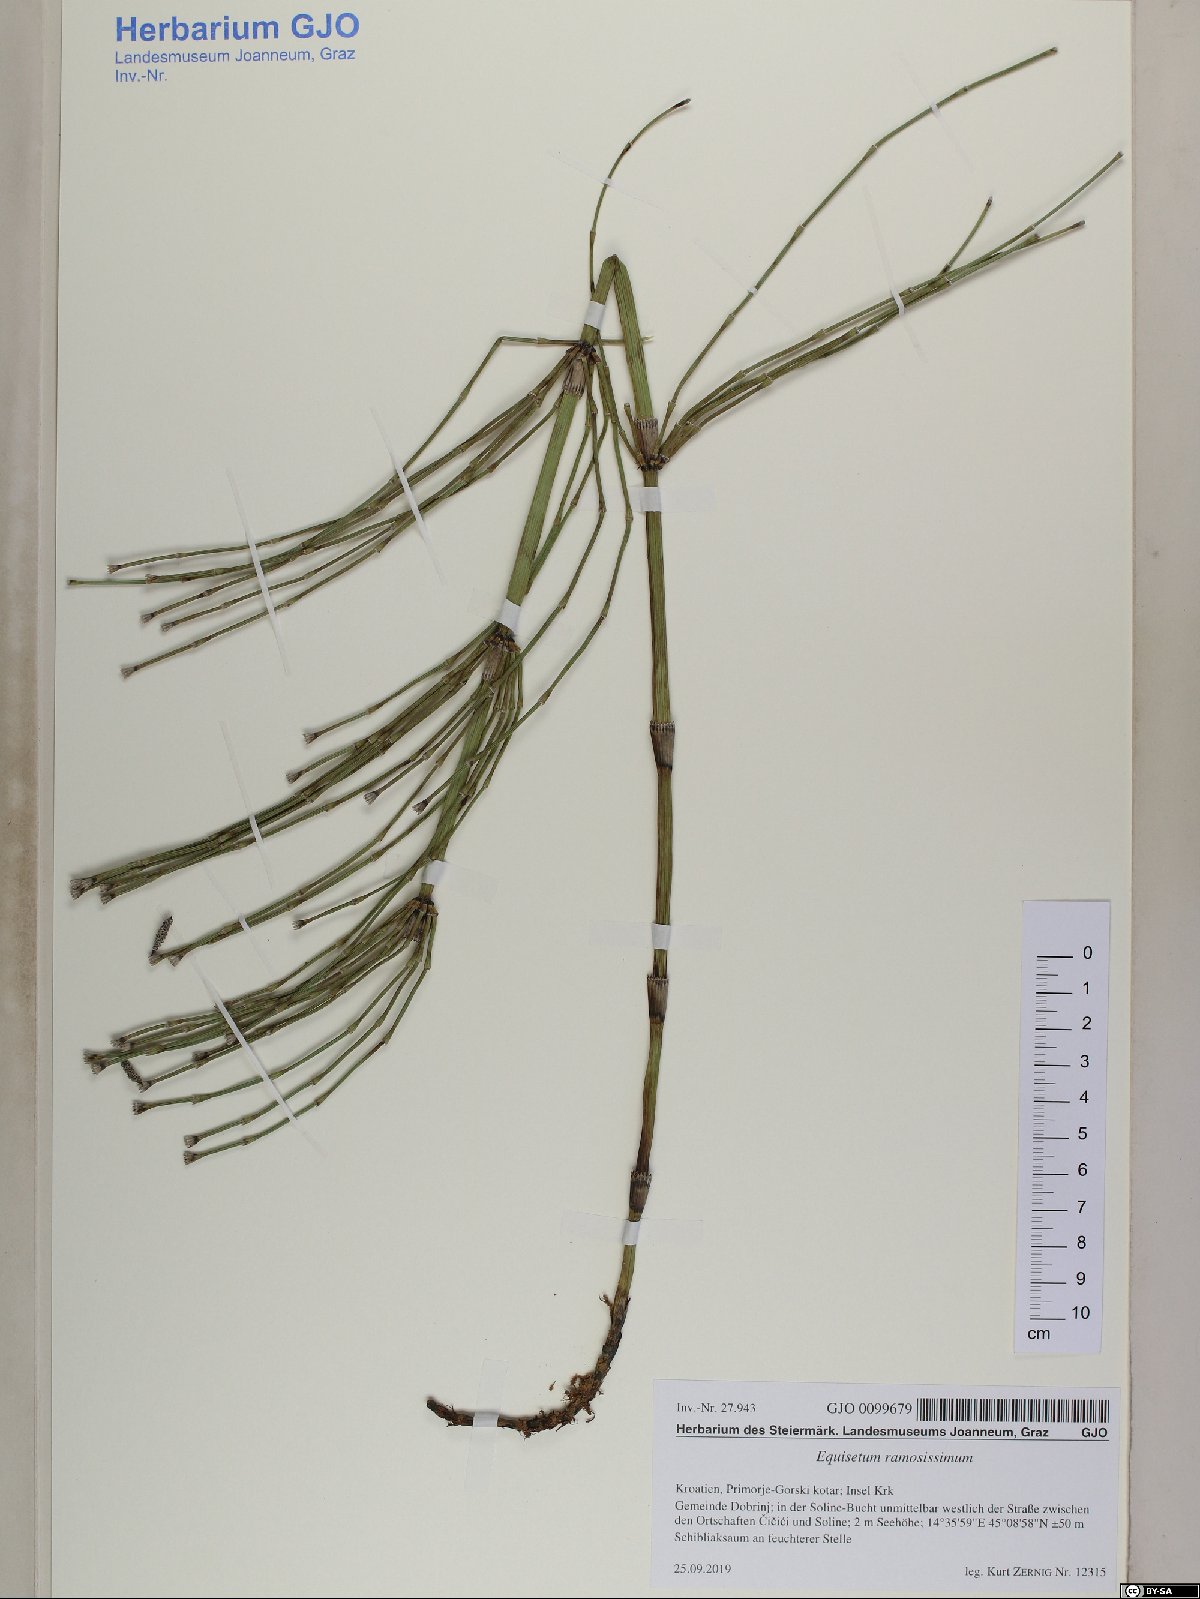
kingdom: Plantae
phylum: Tracheophyta
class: Polypodiopsida
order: Equisetales
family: Equisetaceae
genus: Equisetum
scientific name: Equisetum ramosissimum
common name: Branched horsetail
